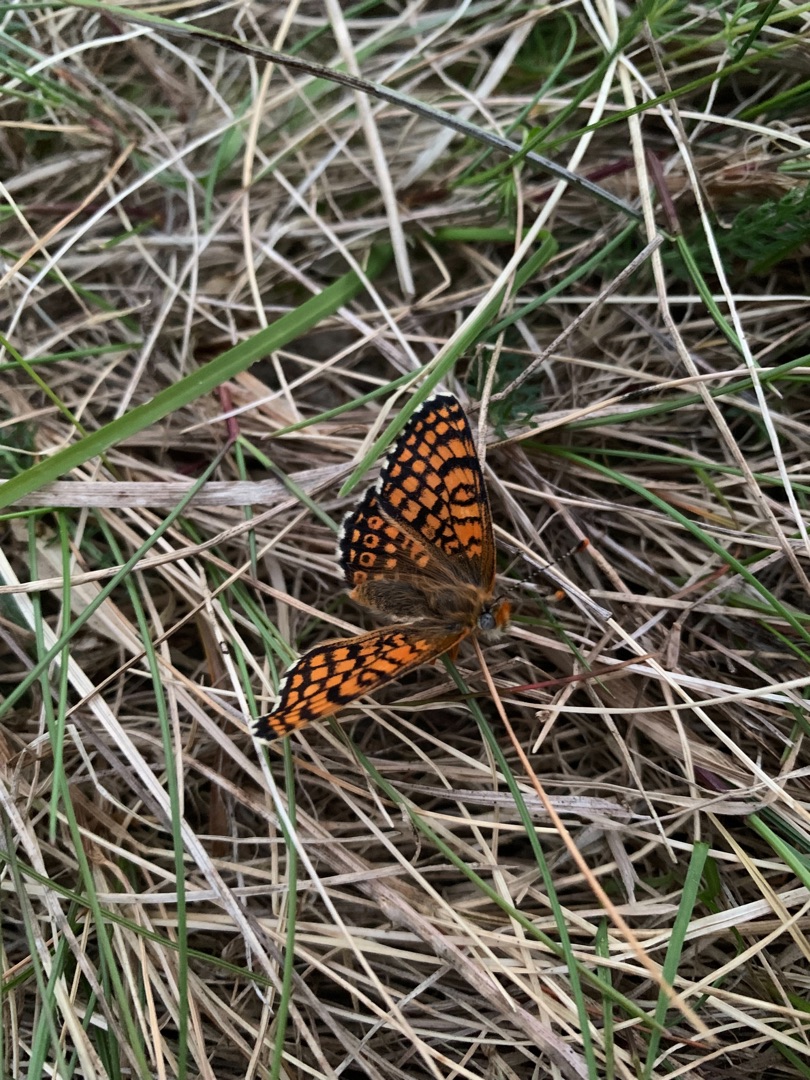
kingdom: Animalia
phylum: Arthropoda
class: Insecta
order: Lepidoptera
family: Nymphalidae
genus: Melitaea
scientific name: Melitaea cinxia
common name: Okkergul pletvinge
